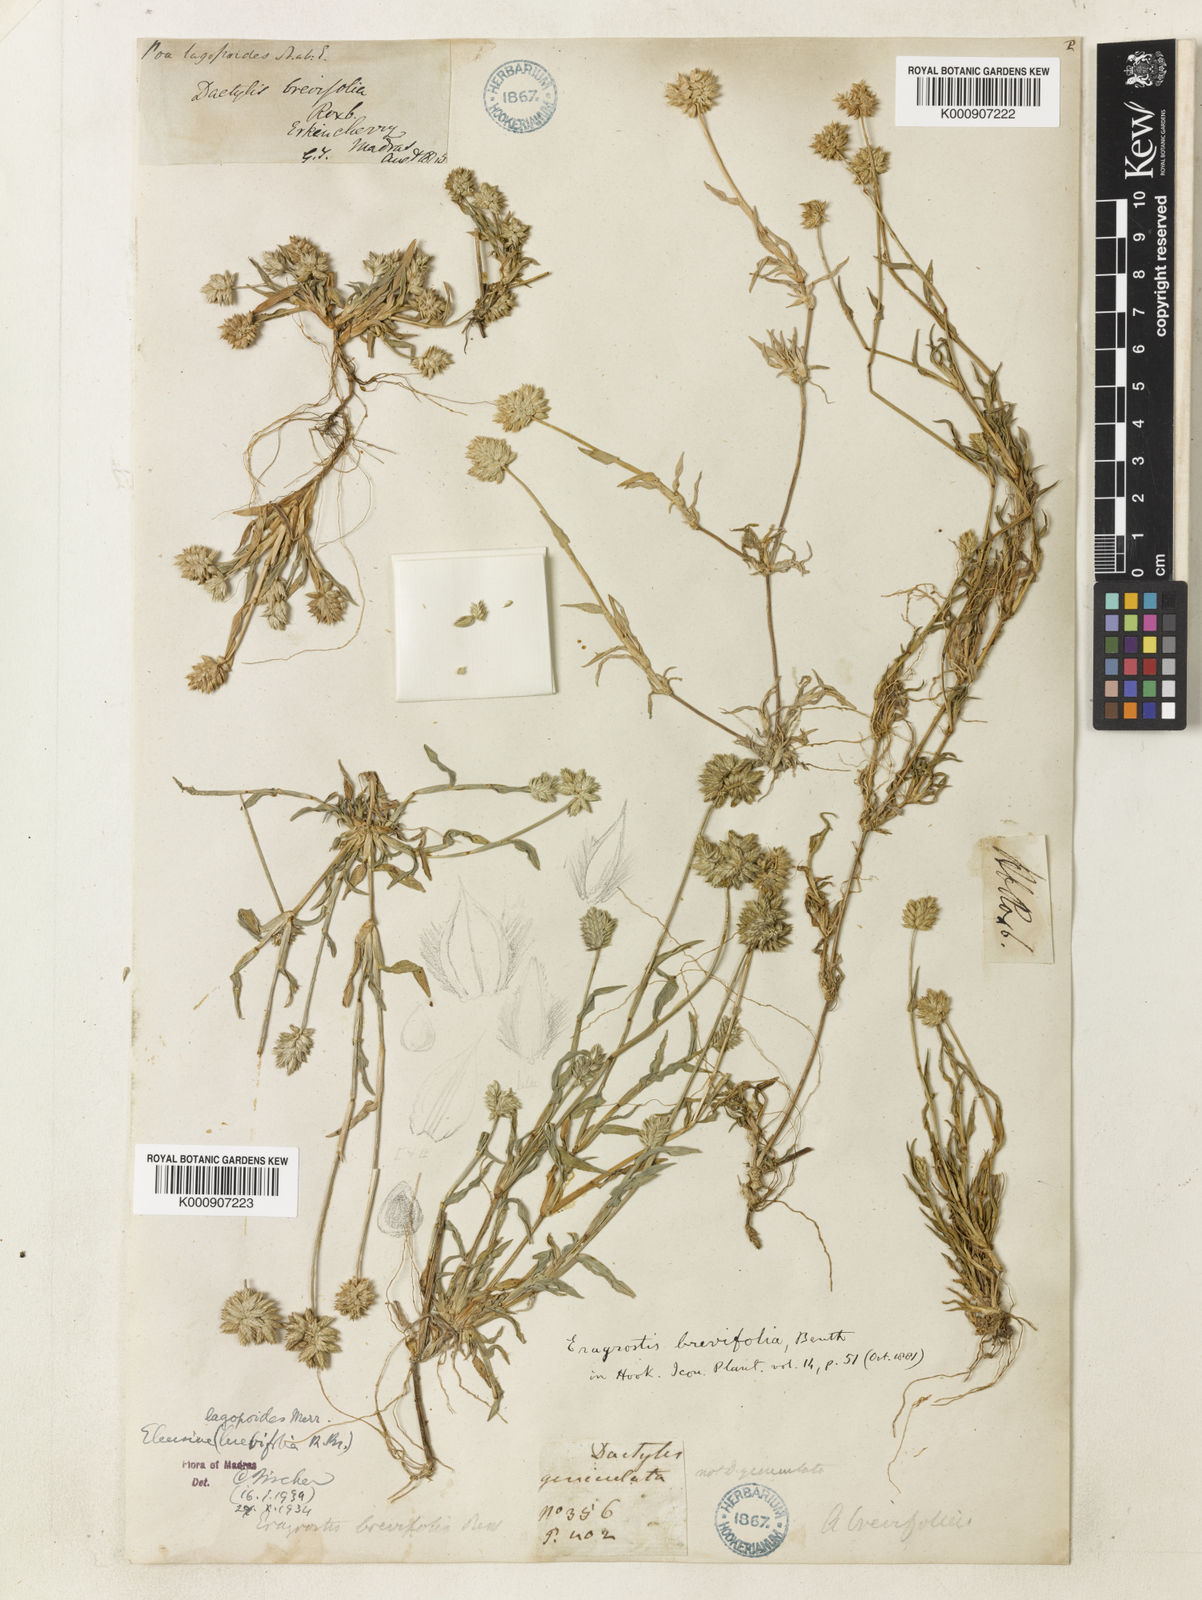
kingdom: Plantae
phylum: Tracheophyta
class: Liliopsida
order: Poales
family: Poaceae
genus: Coelachyrum
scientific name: Coelachyrum lagopoides
